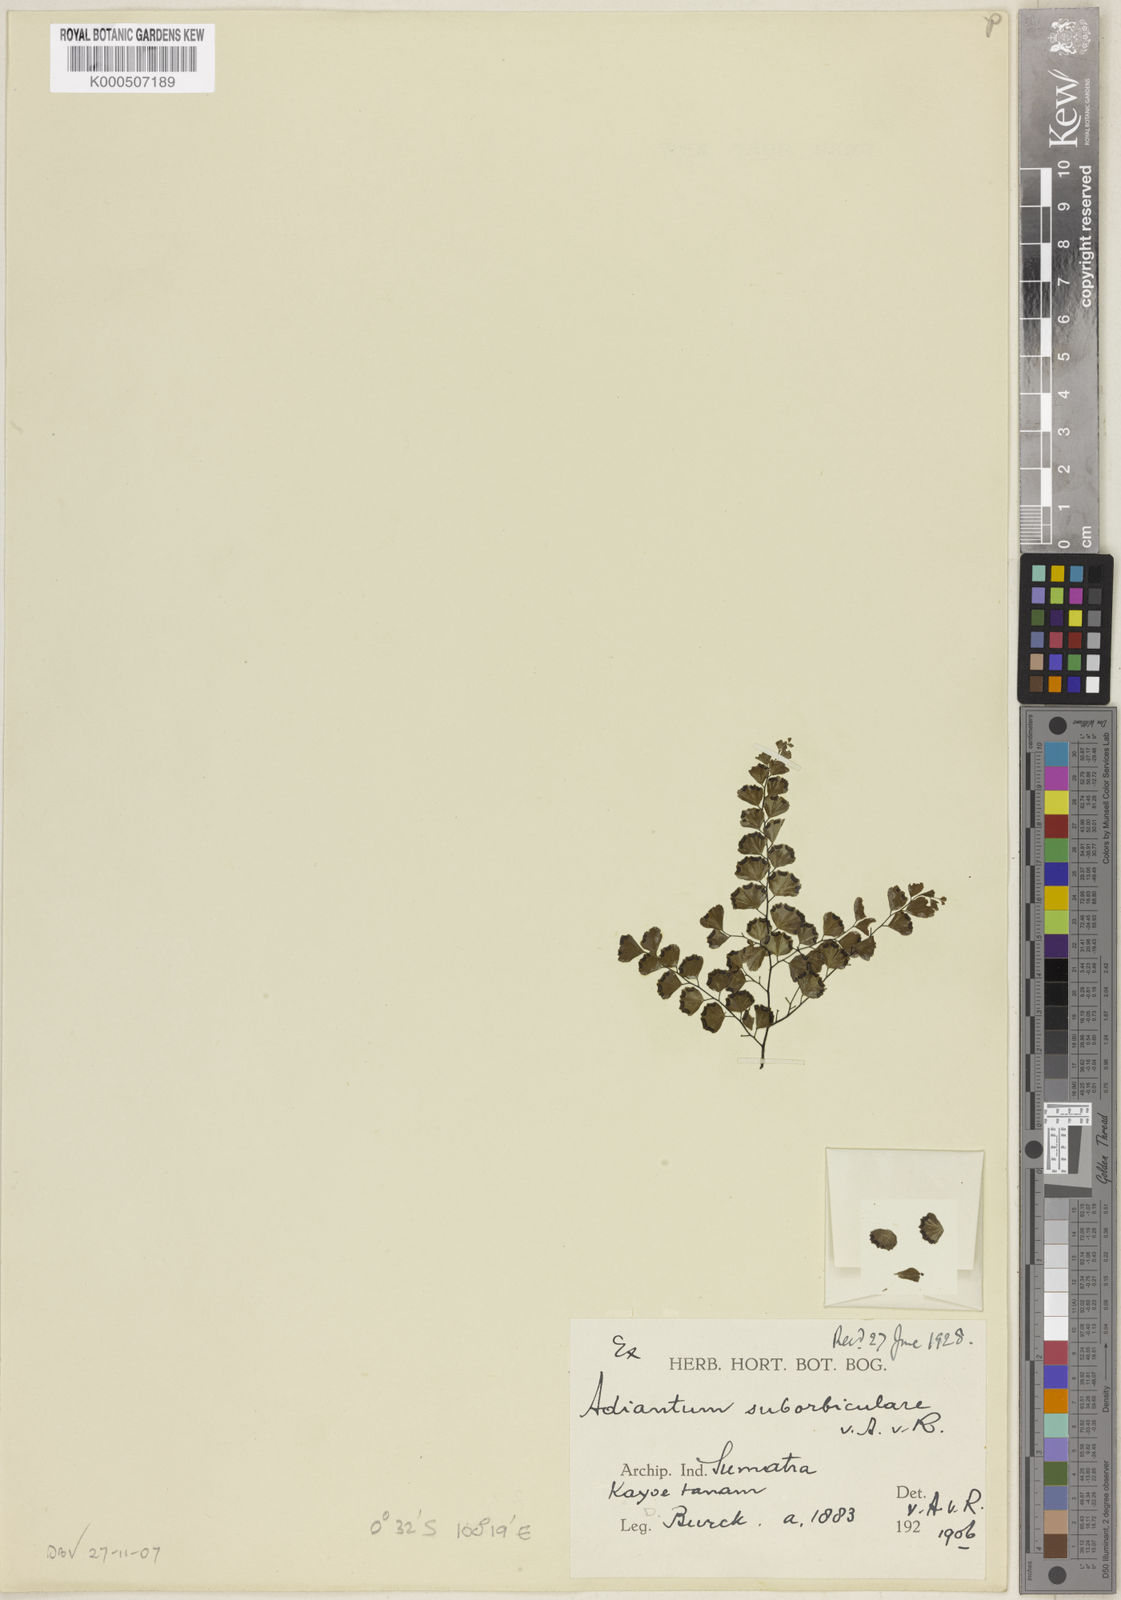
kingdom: Plantae
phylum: Tracheophyta
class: Polypodiopsida
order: Polypodiales
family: Pteridaceae
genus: Adiantum
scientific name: Adiantum flabellulatum
